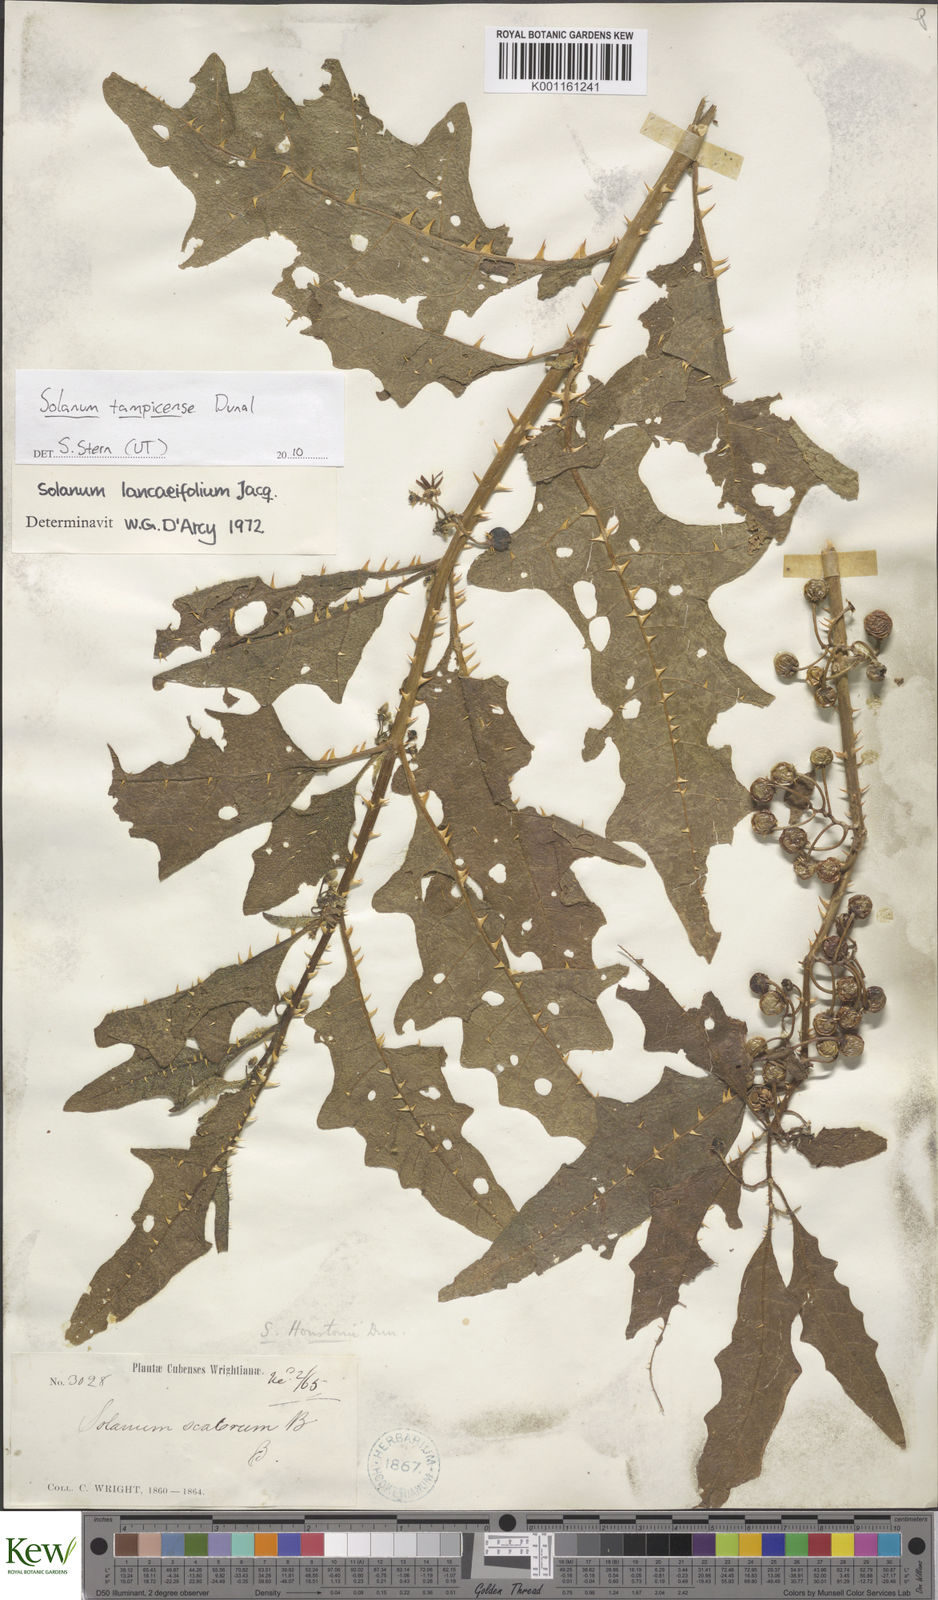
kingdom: Plantae
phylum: Tracheophyta
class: Magnoliopsida
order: Solanales
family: Solanaceae
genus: Solanum
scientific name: Solanum tampicense
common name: Scrambling nightshade
